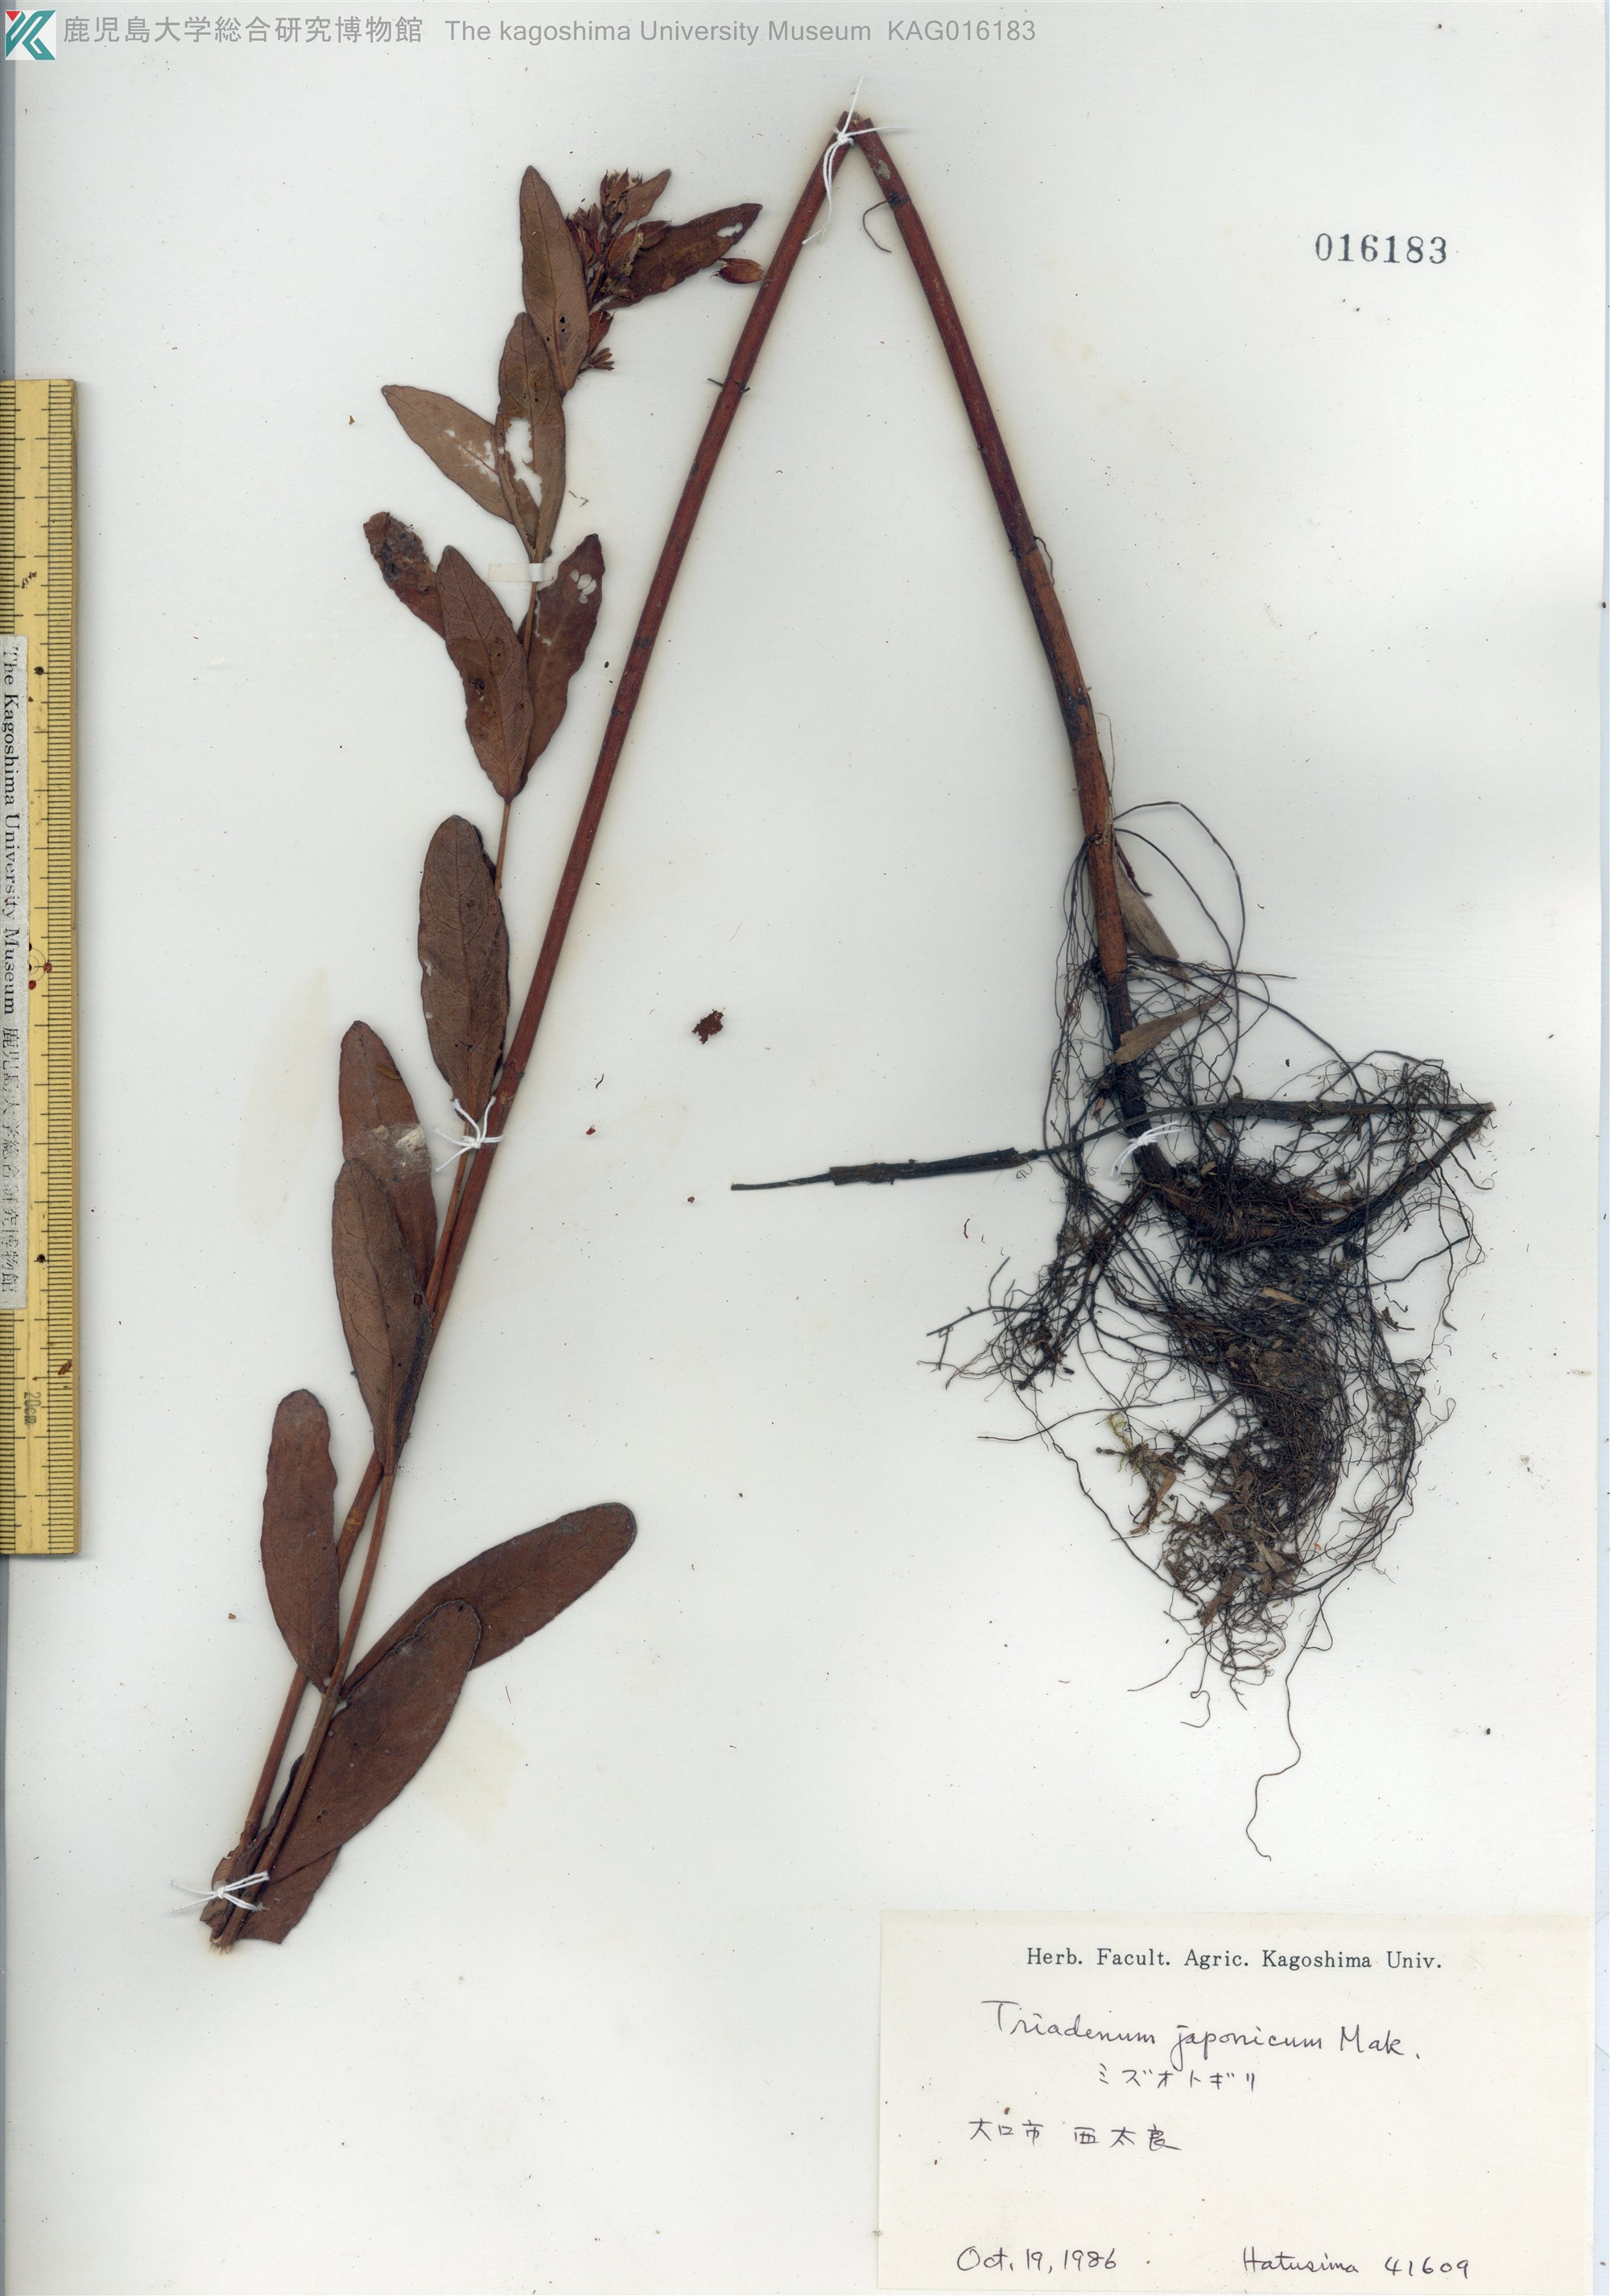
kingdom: Plantae
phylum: Tracheophyta
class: Magnoliopsida
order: Malpighiales
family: Hypericaceae
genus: Triadenum
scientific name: Triadenum japonicum
